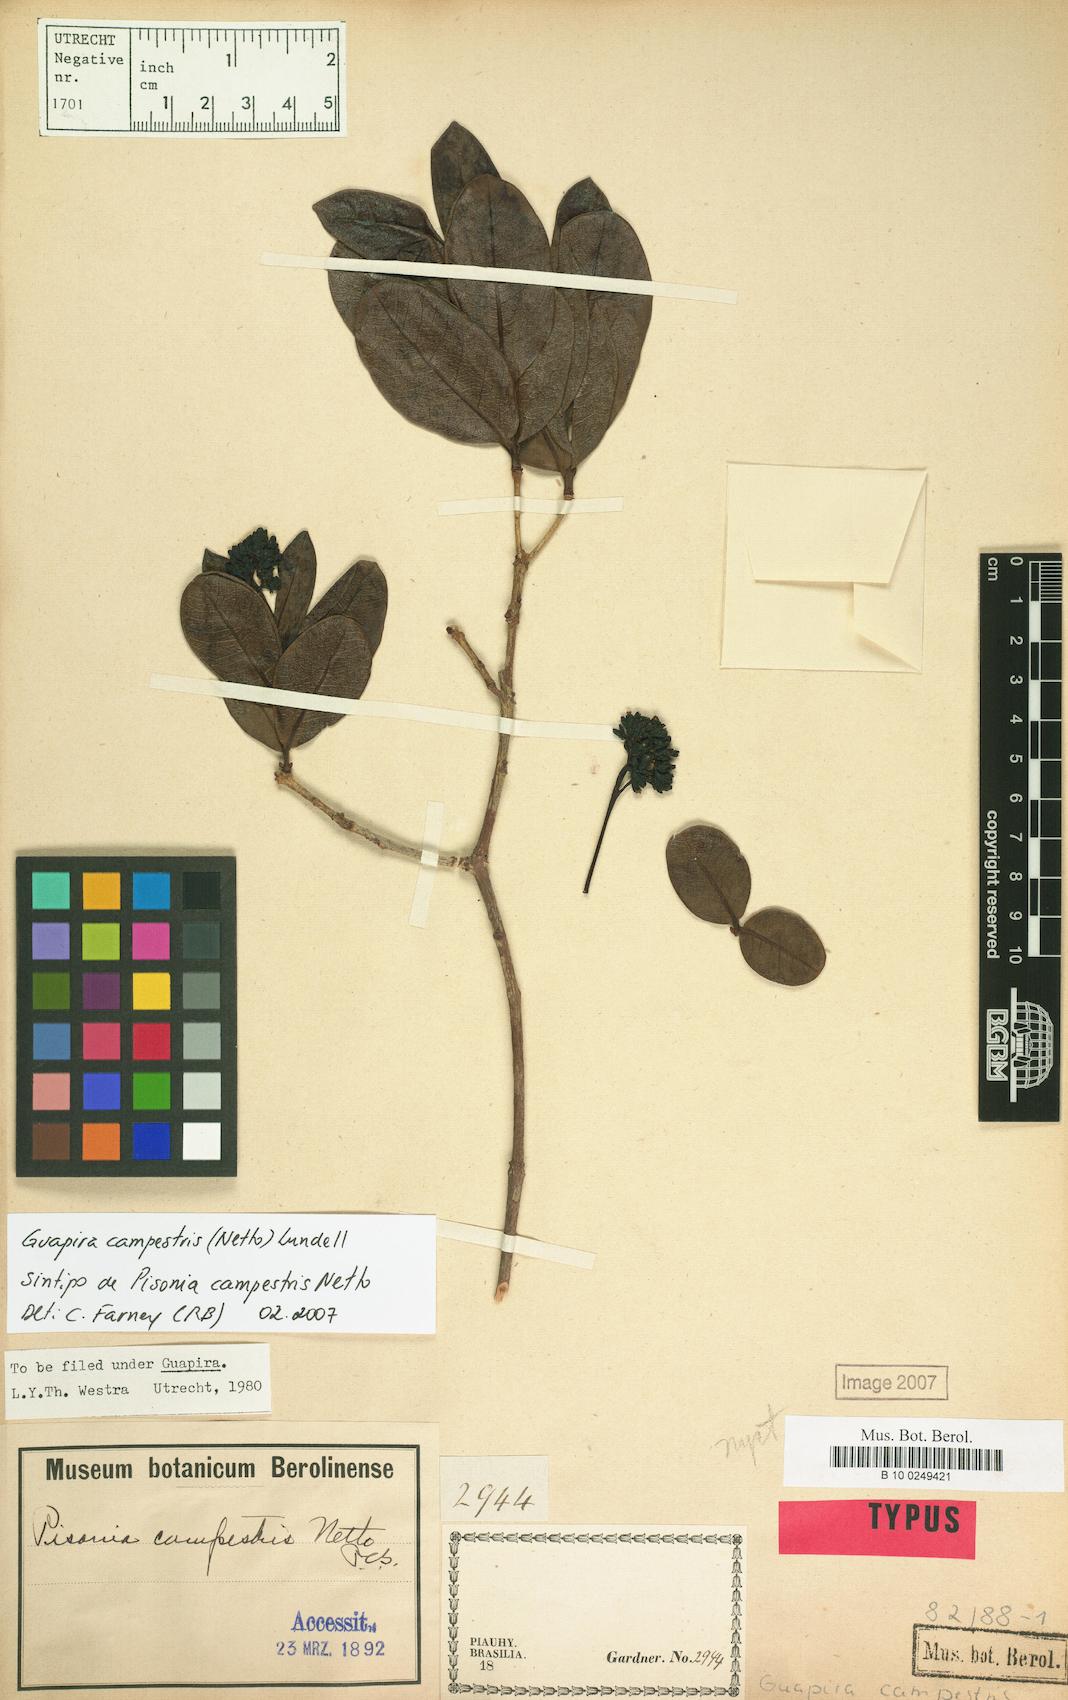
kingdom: Plantae
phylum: Tracheophyta
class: Magnoliopsida
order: Caryophyllales
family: Nyctaginaceae
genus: Guapira
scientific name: Guapira campestris
